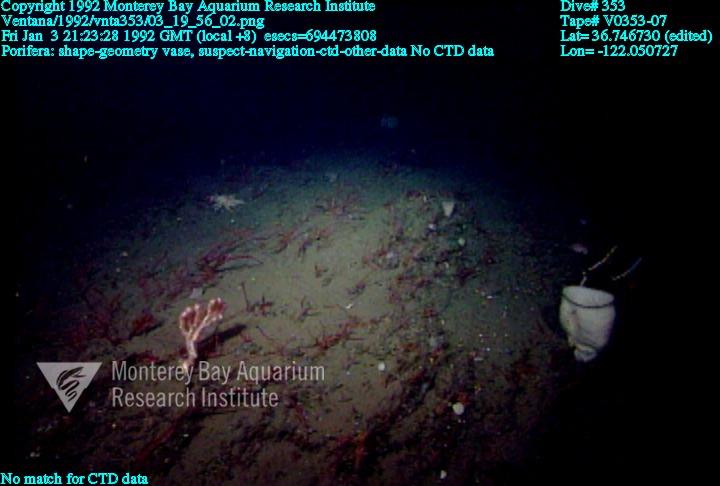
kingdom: Animalia
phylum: Porifera
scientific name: Porifera
